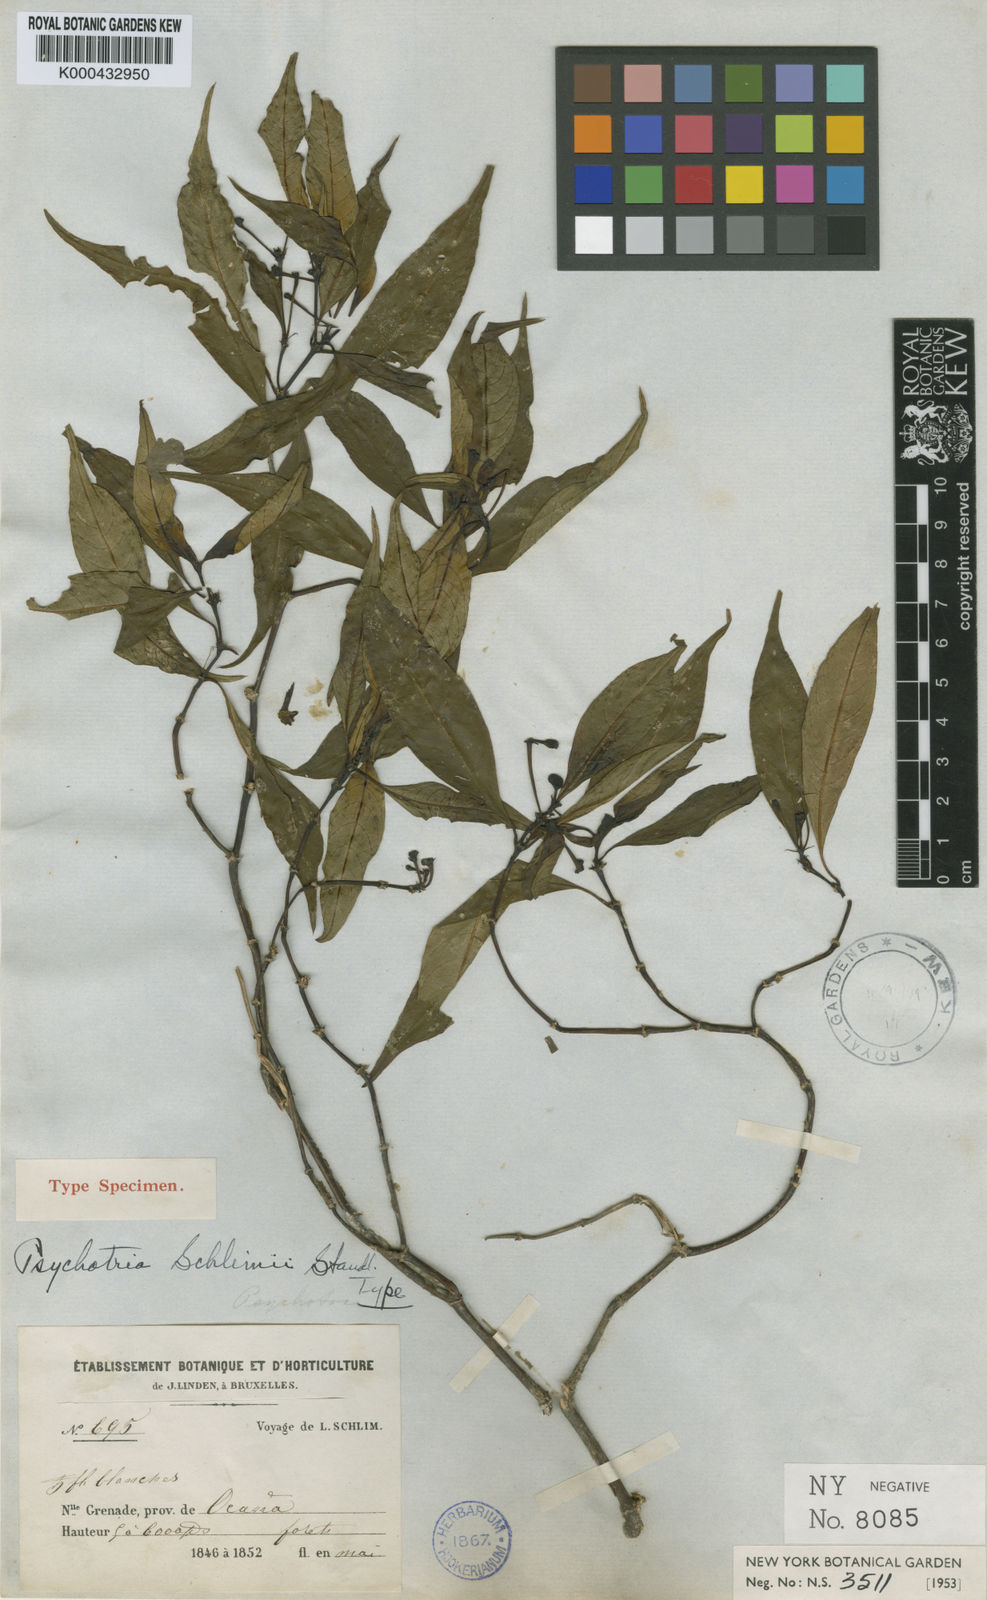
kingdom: Plantae
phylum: Tracheophyta
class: Magnoliopsida
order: Gentianales
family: Rubiaceae
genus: Palicourea
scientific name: Palicourea schlimii
